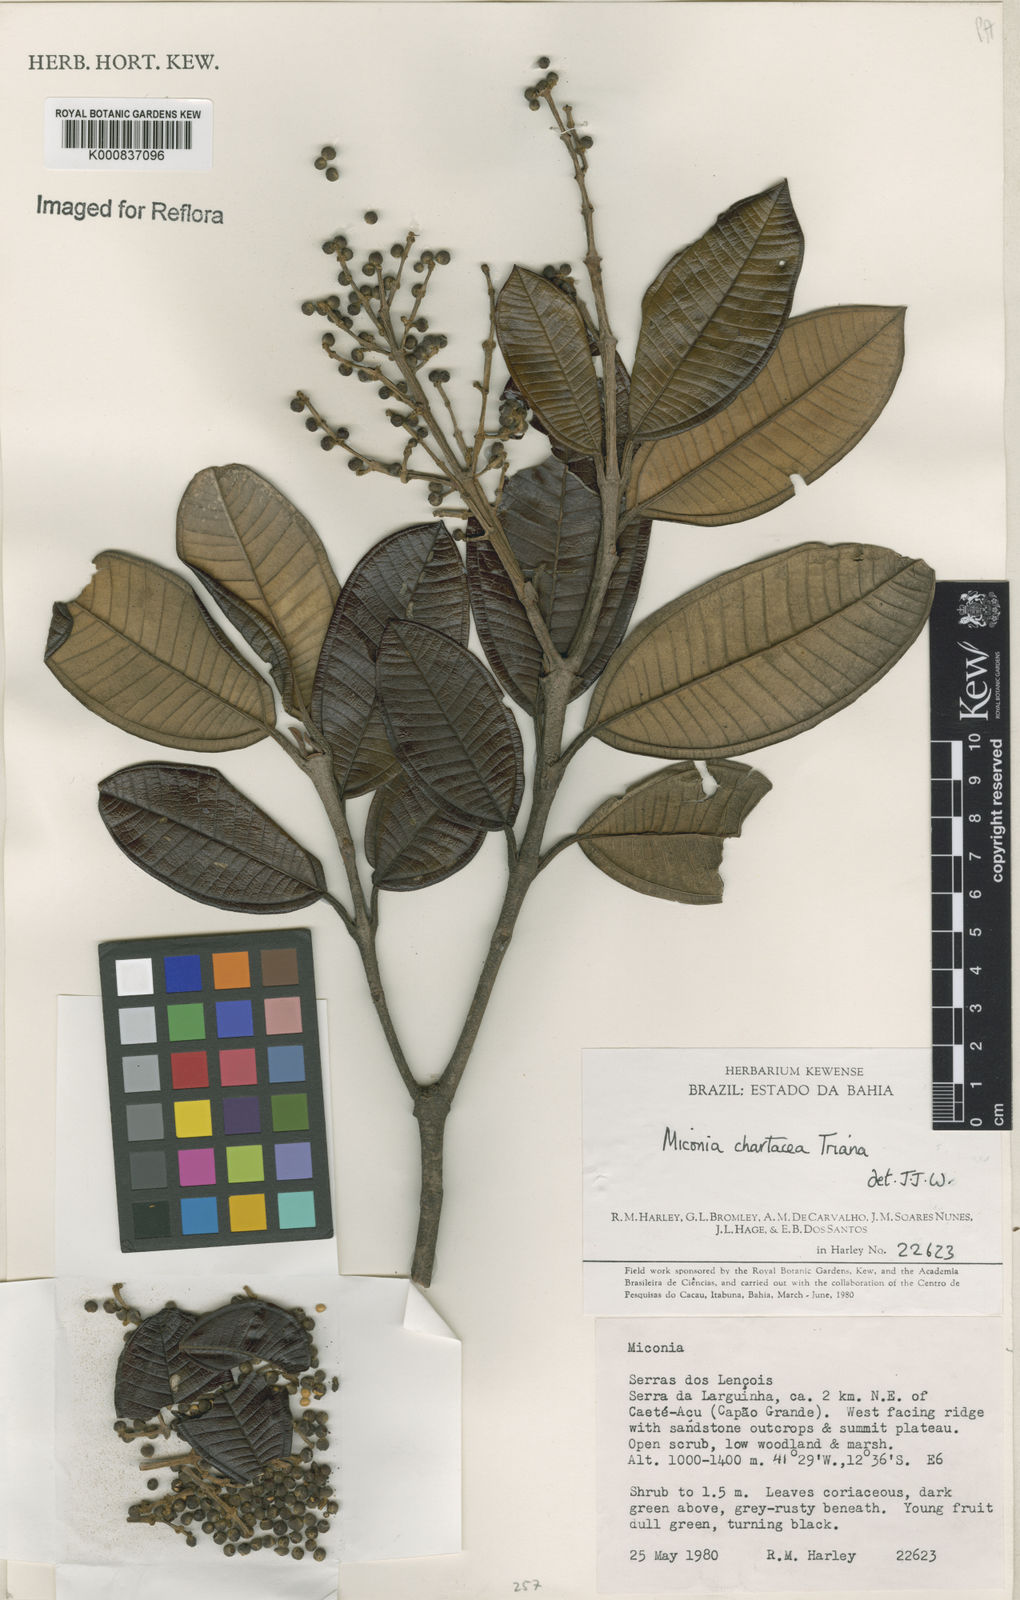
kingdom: Plantae
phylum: Tracheophyta
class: Magnoliopsida
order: Myrtales
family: Melastomataceae
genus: Miconia
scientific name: Miconia chartacea
